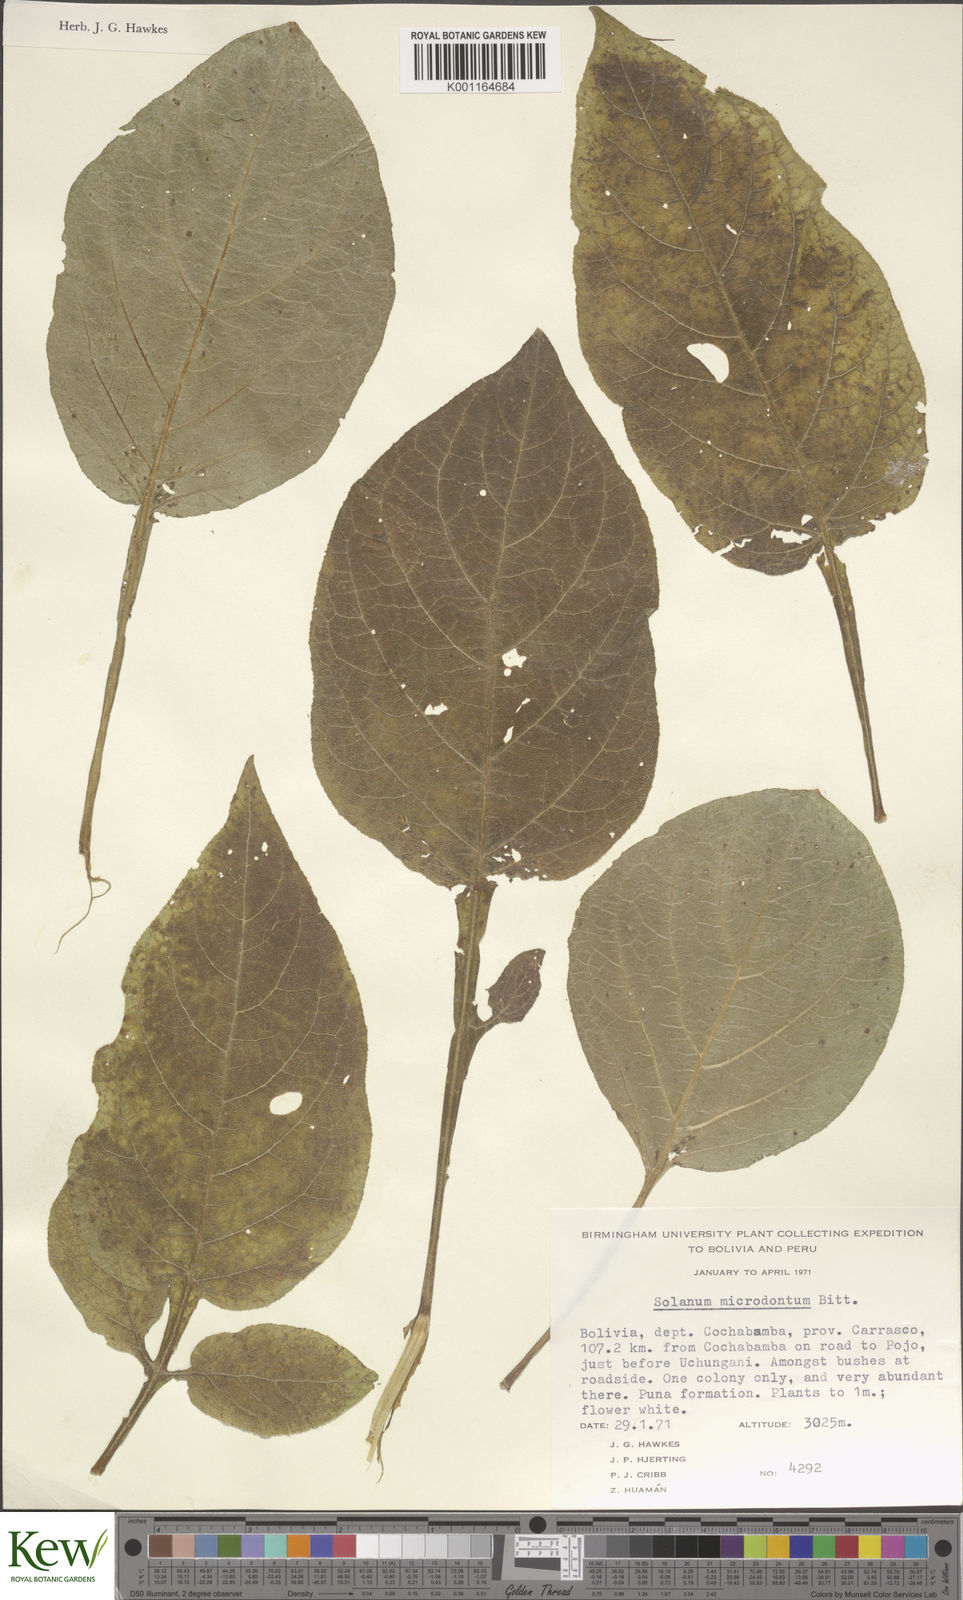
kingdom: Plantae
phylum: Tracheophyta
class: Magnoliopsida
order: Solanales
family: Solanaceae
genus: Solanum
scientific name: Solanum microdontum
